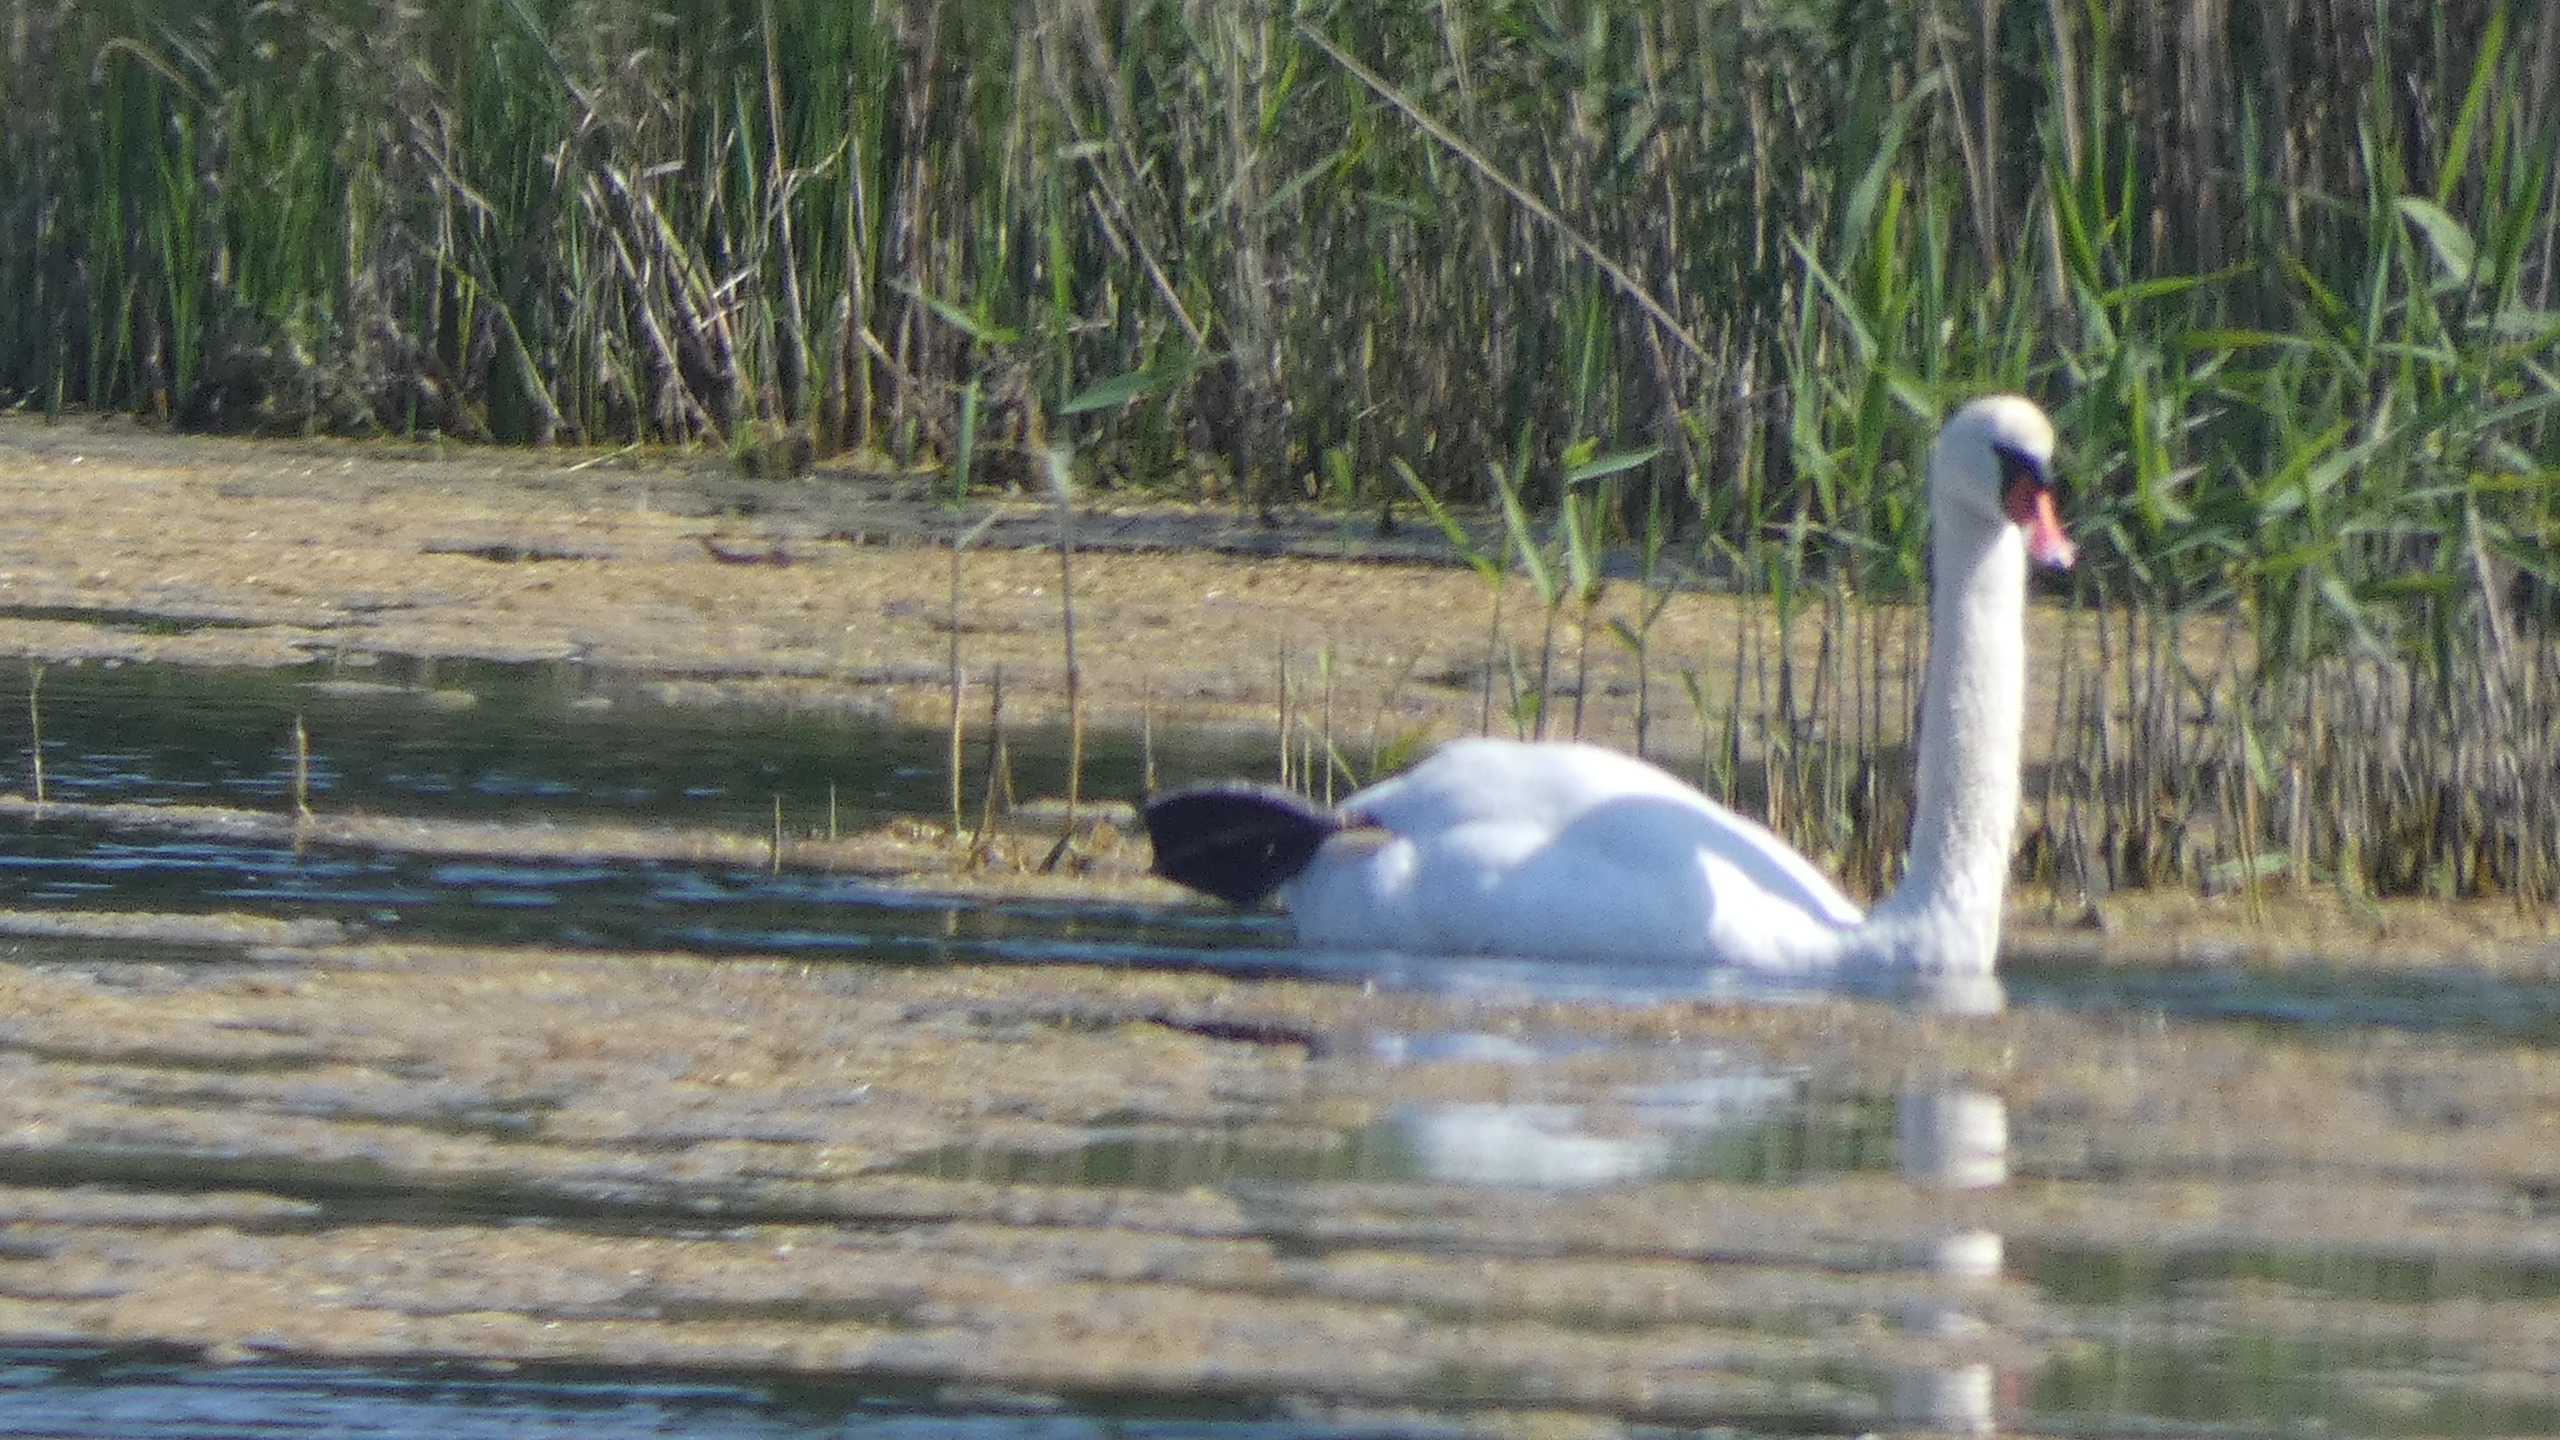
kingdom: Animalia
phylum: Chordata
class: Aves
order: Anseriformes
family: Anatidae
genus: Cygnus
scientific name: Cygnus olor
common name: Knopsvane
